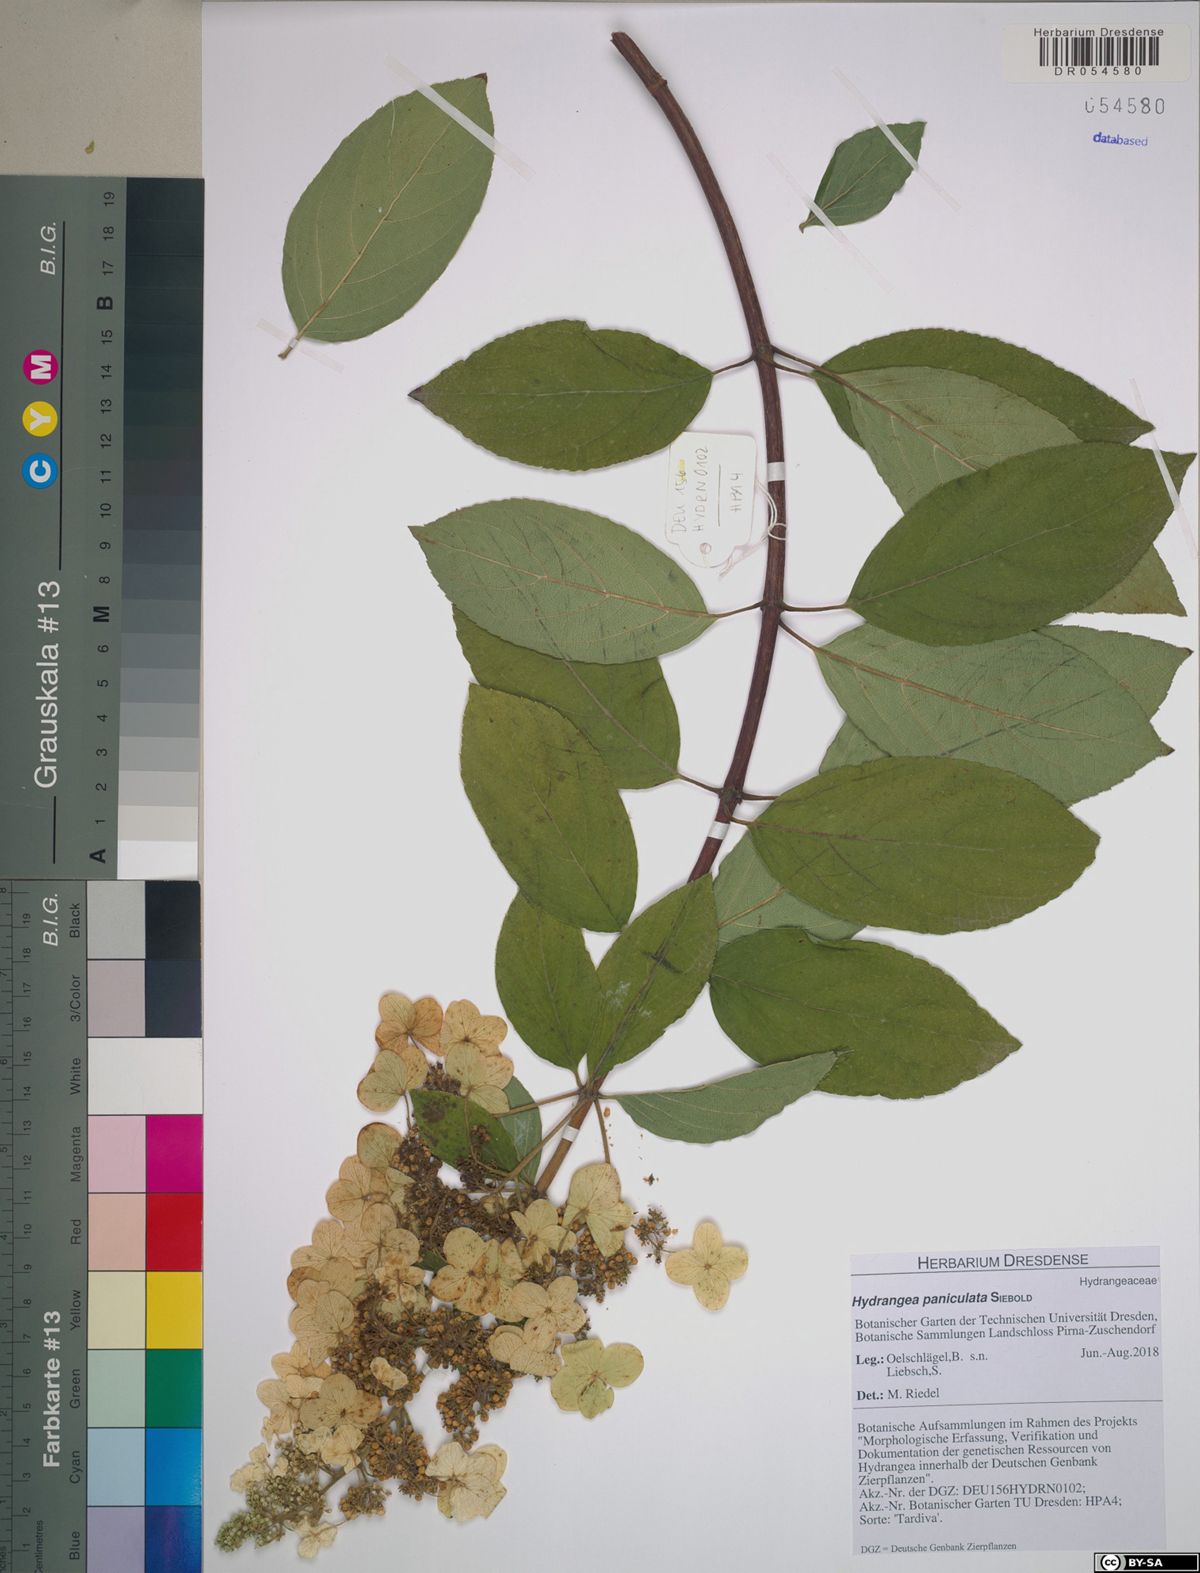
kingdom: Plantae
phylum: Tracheophyta
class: Magnoliopsida
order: Cornales
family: Hydrangeaceae
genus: Hydrangea
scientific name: Hydrangea paniculata
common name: Panicled hydrangea
